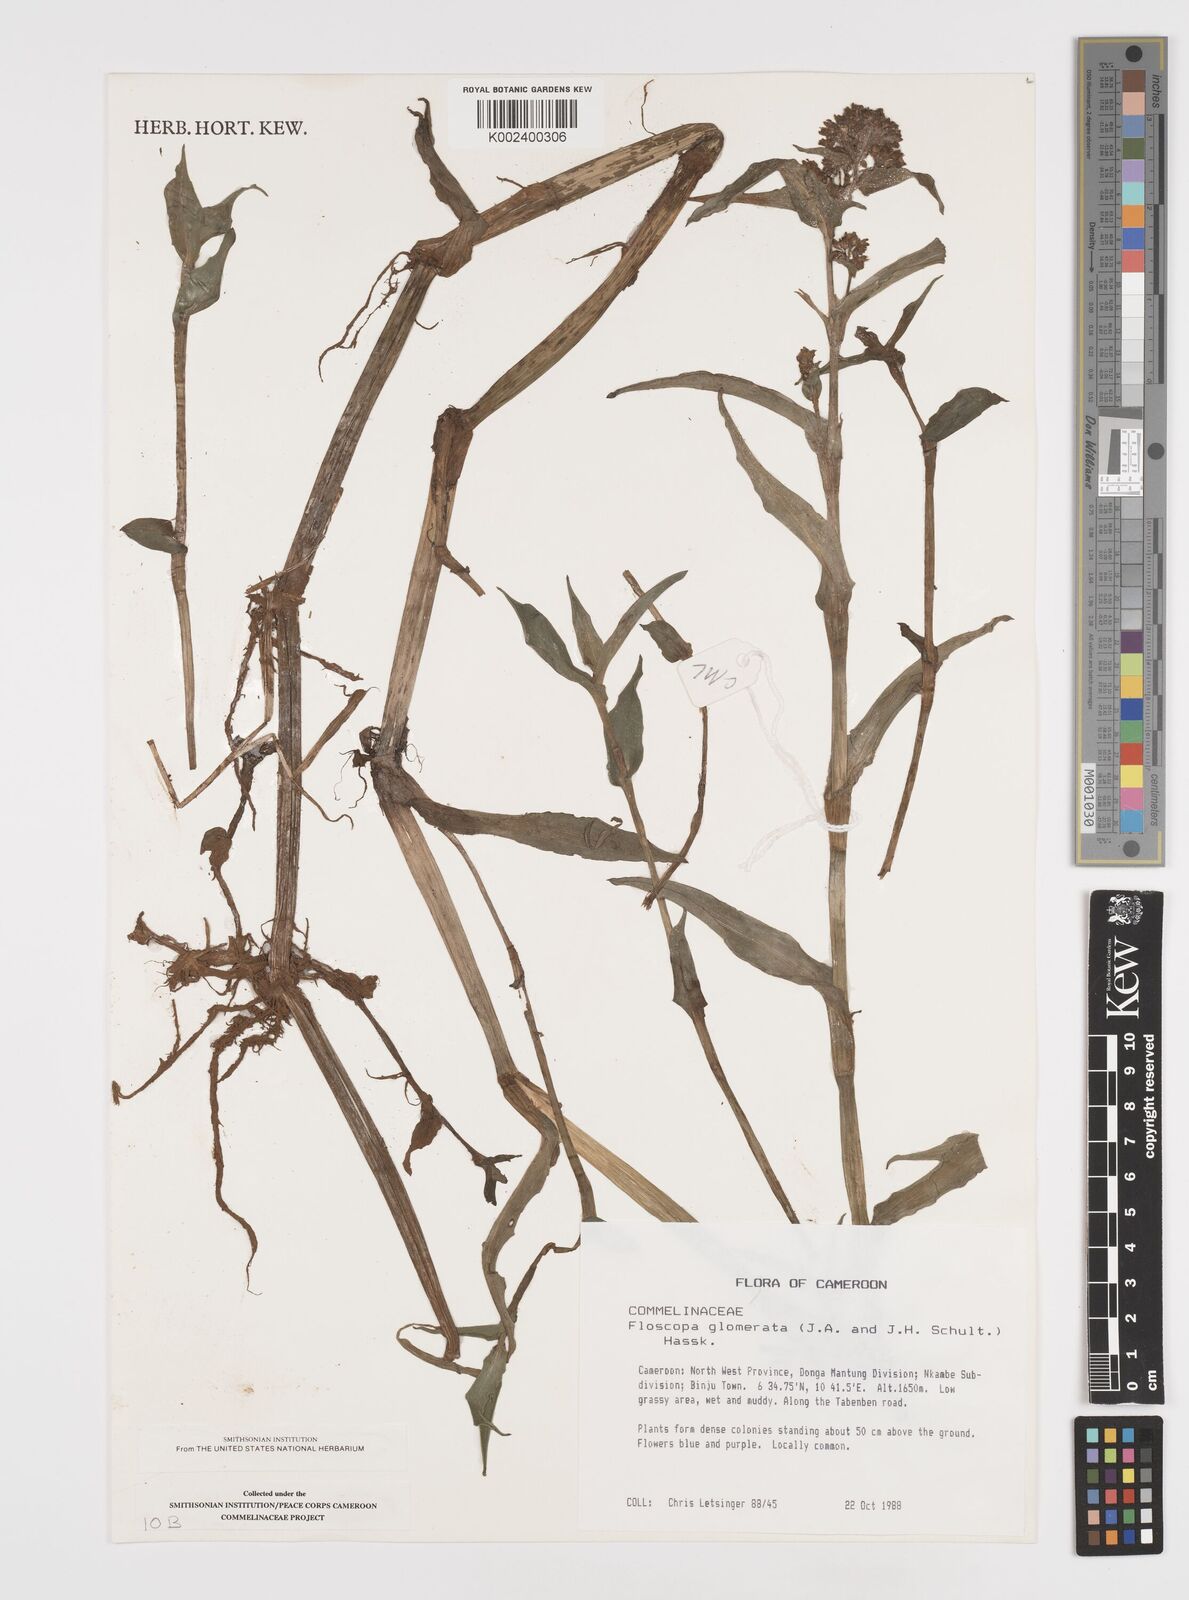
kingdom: Plantae
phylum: Tracheophyta
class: Liliopsida
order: Commelinales
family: Commelinaceae
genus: Floscopa
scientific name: Floscopa glomerata
